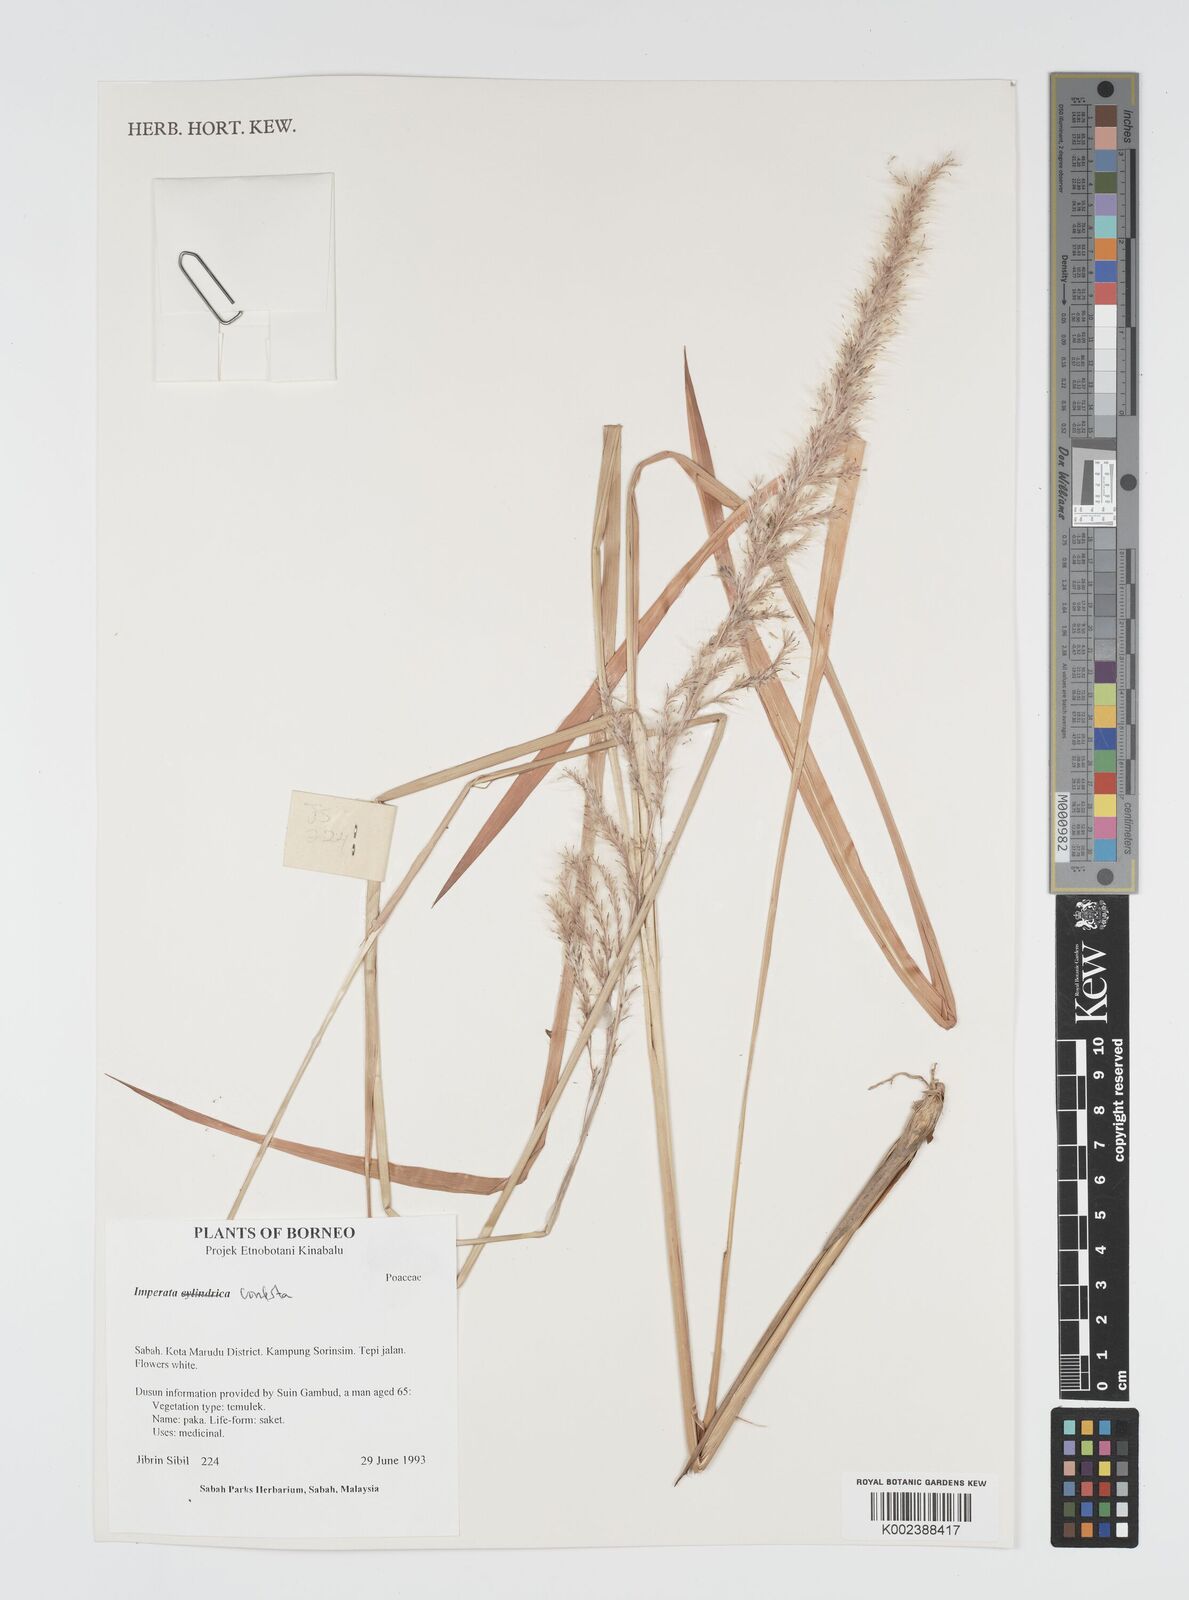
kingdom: Plantae
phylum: Tracheophyta
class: Liliopsida
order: Poales
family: Poaceae
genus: Imperata
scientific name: Imperata conferta
